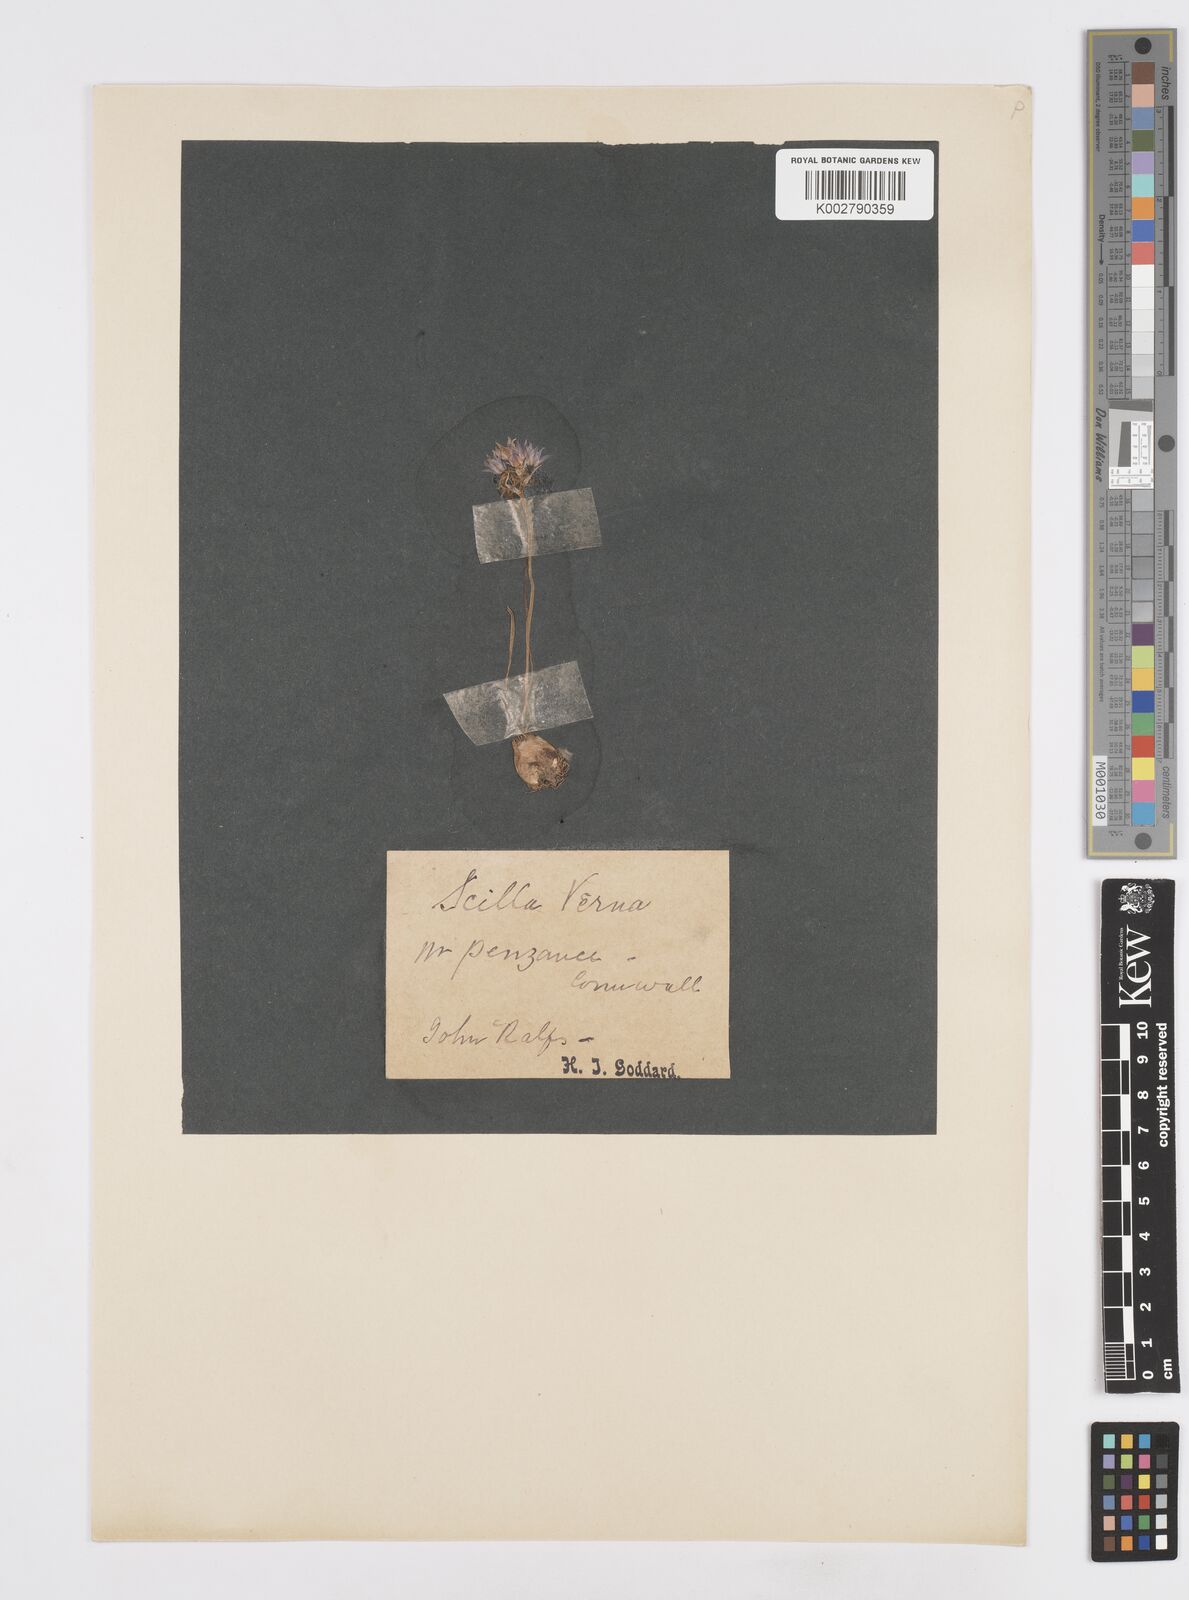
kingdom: Plantae
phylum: Tracheophyta
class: Liliopsida
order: Asparagales
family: Asparagaceae
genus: Scilla
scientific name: Scilla verna
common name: Spring squill
